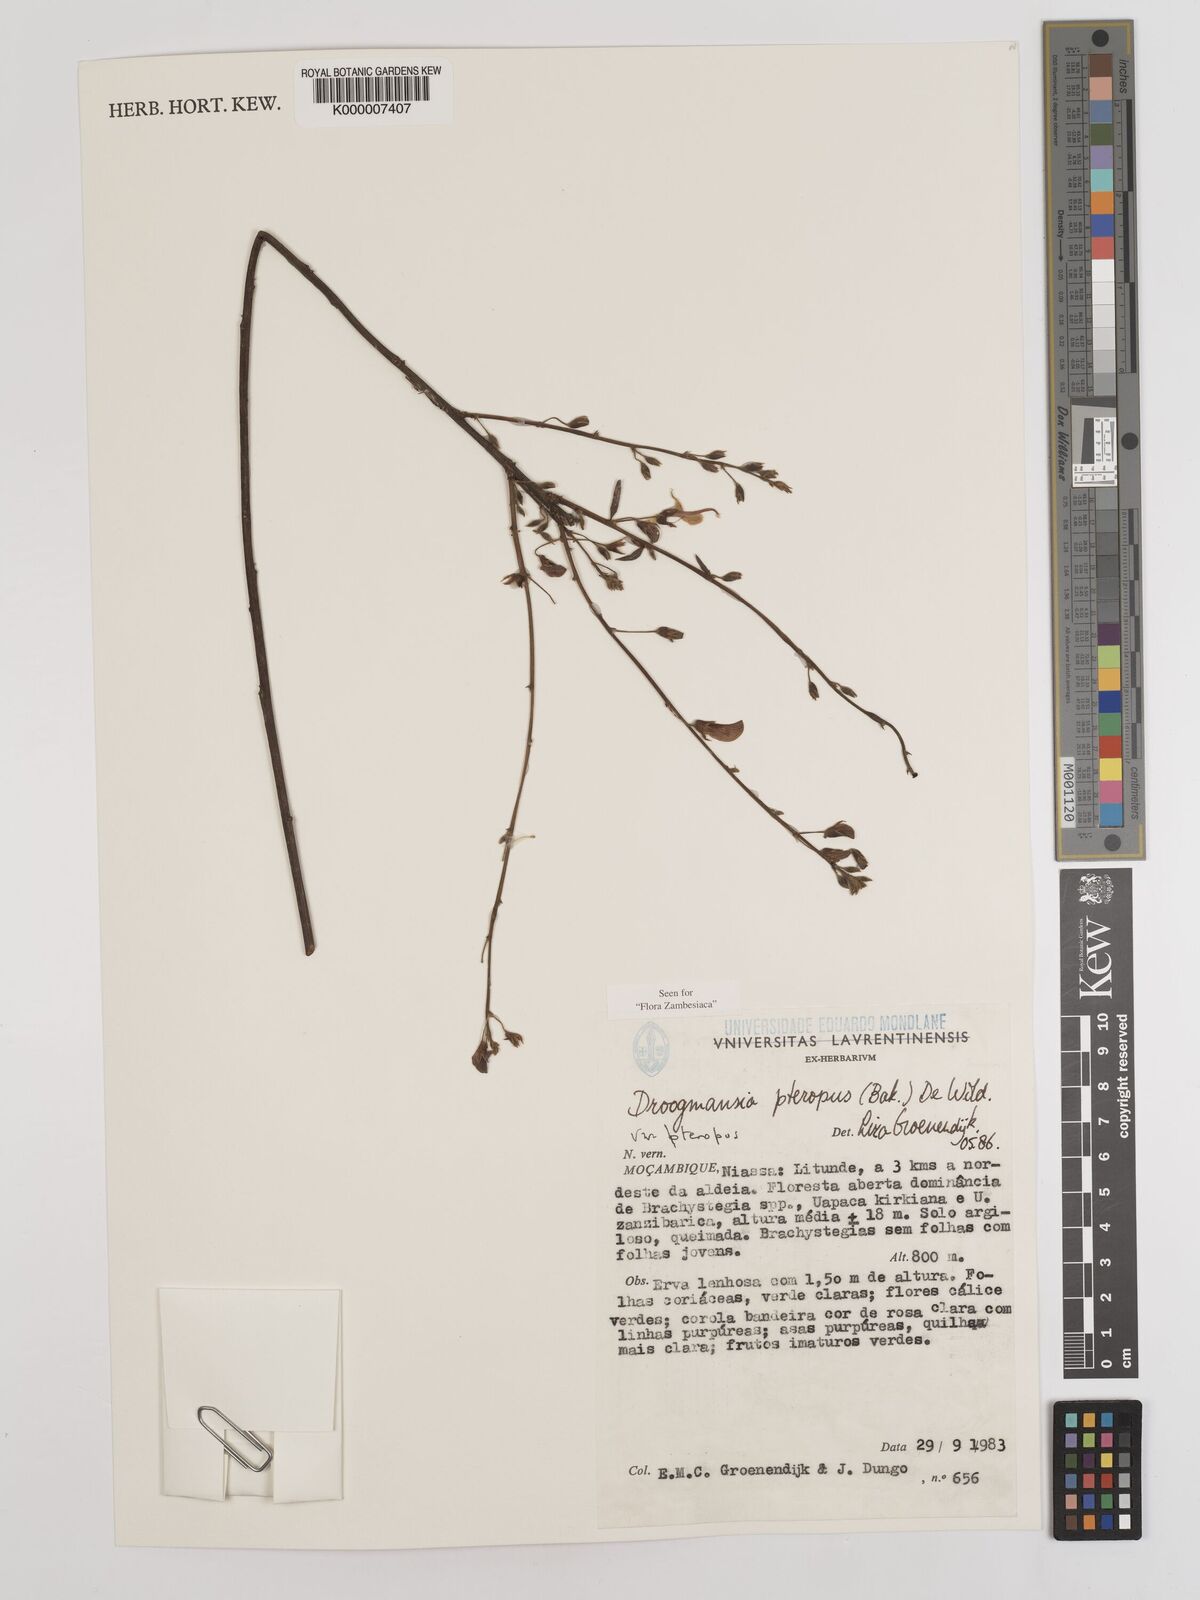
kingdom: Plantae
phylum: Tracheophyta
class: Magnoliopsida
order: Fabales
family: Fabaceae
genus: Droogmansia
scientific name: Droogmansia pteropus
